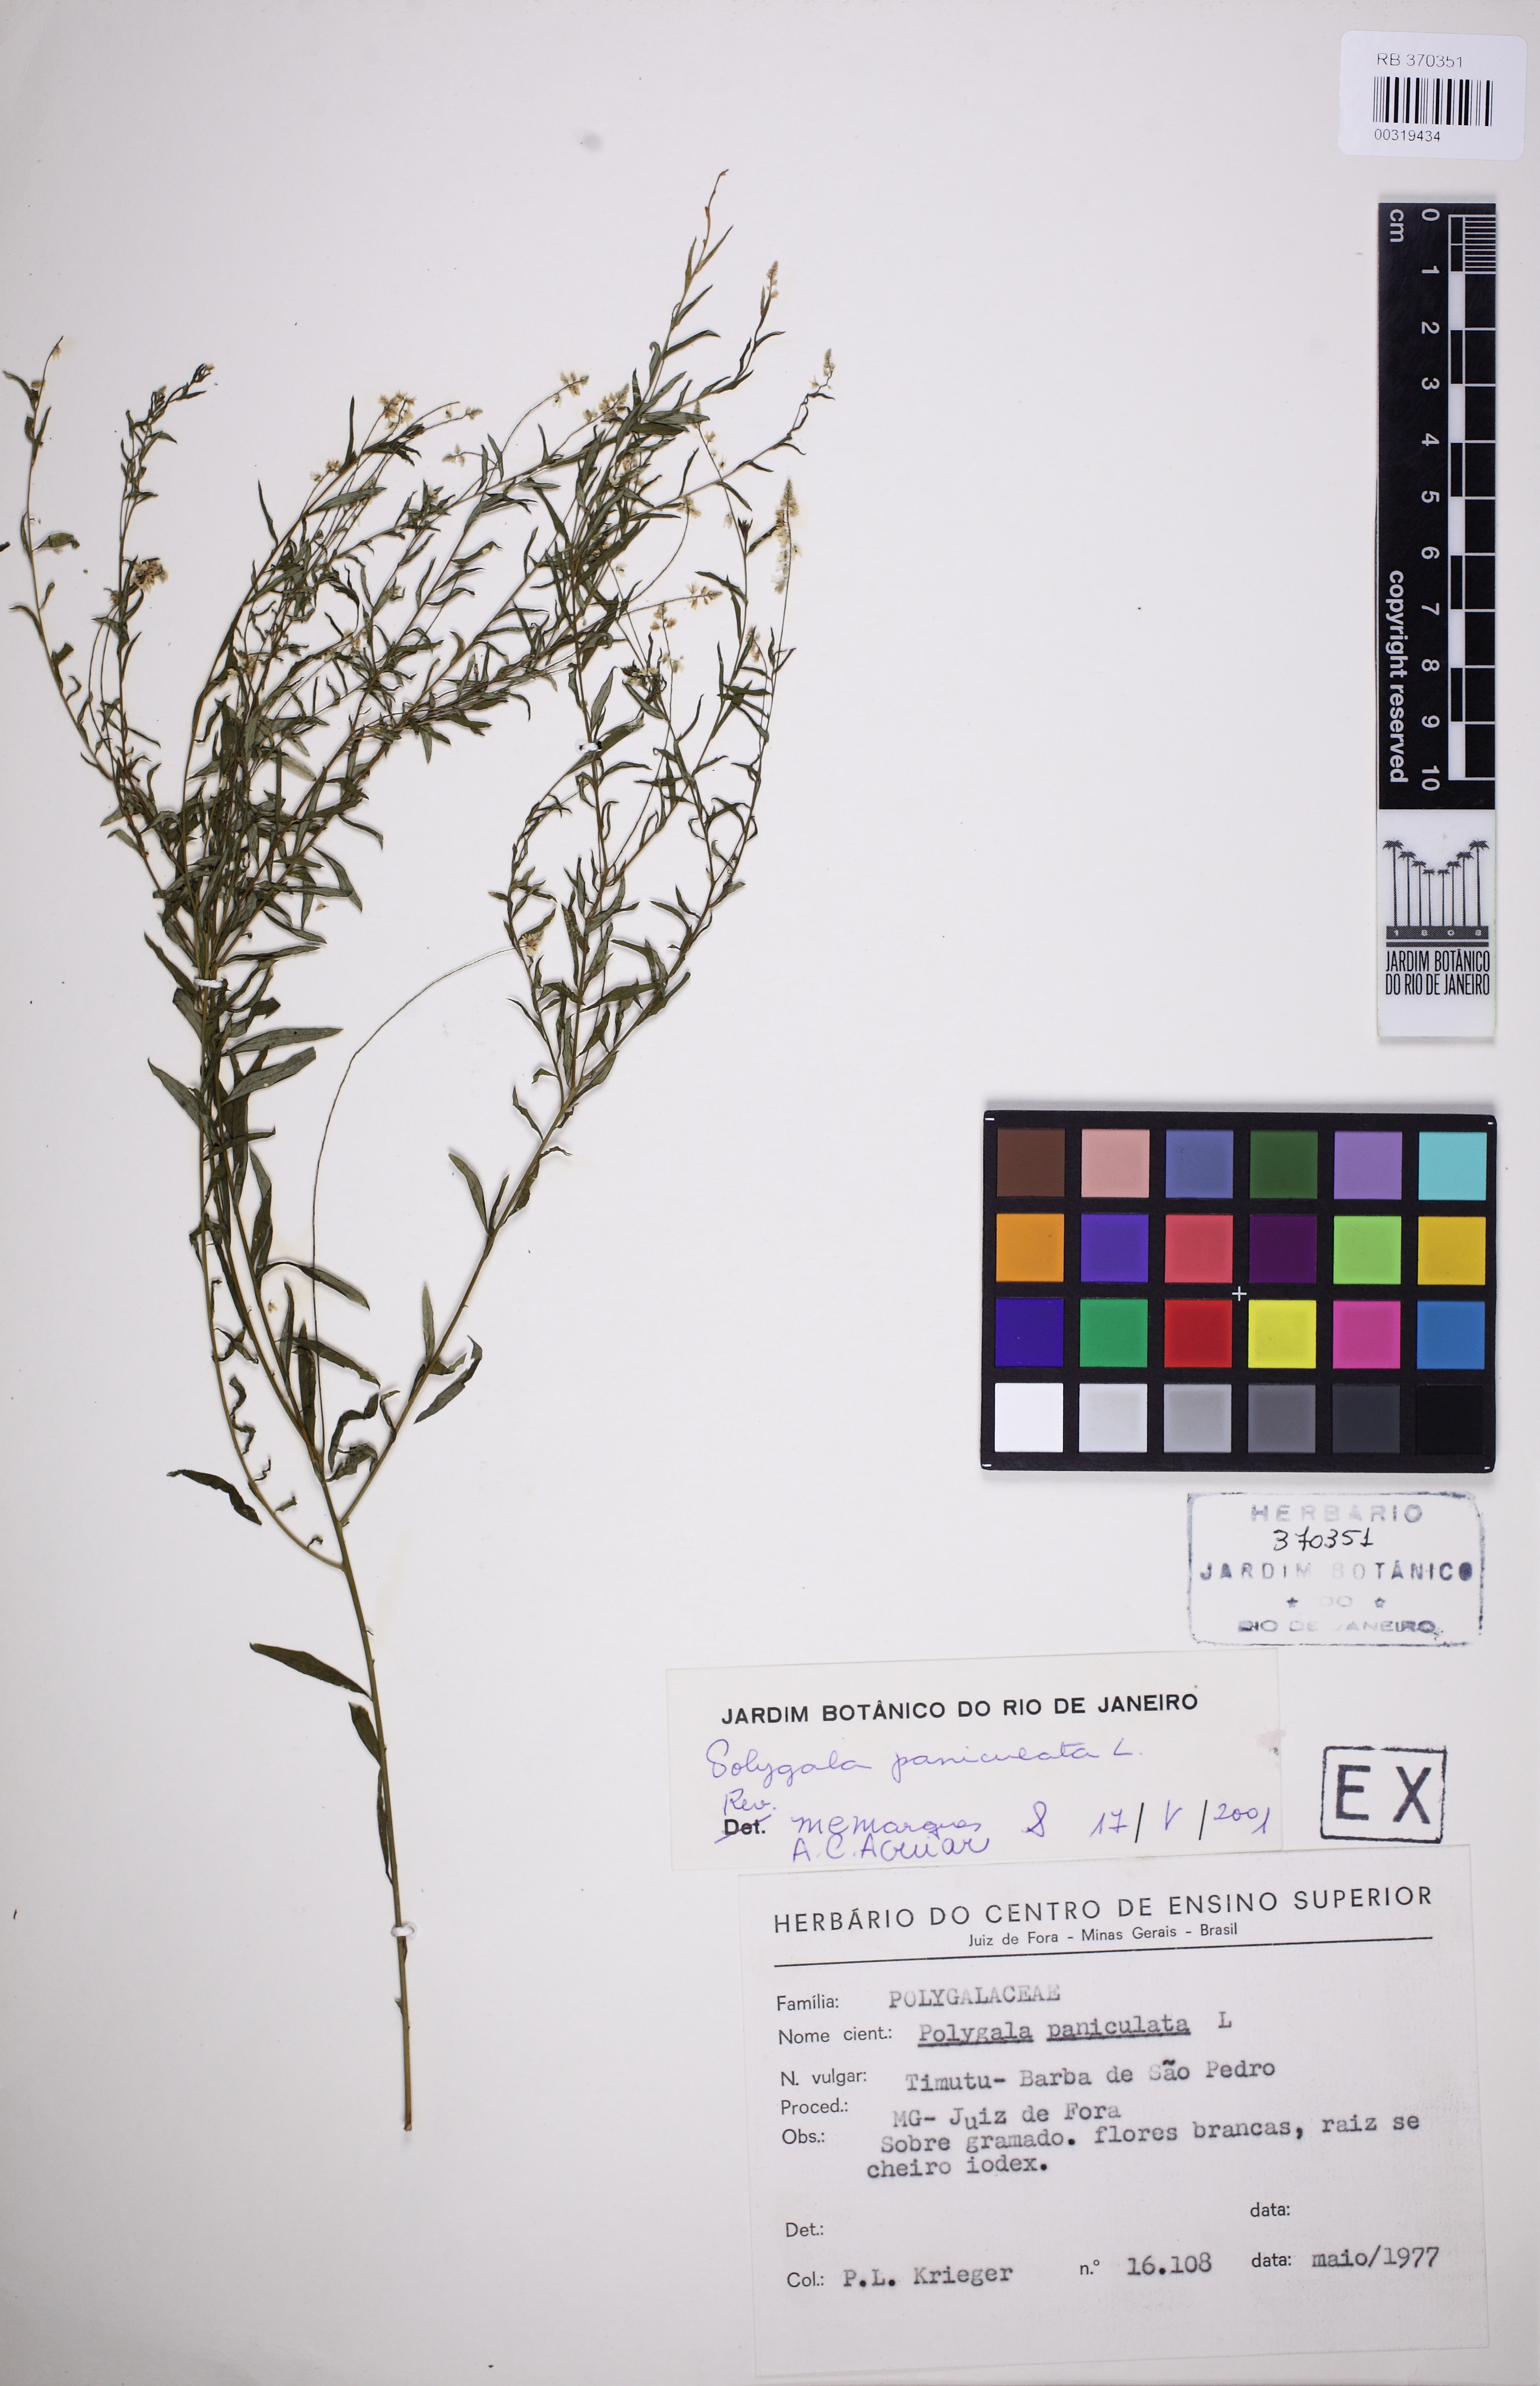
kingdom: Plantae
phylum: Tracheophyta
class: Magnoliopsida
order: Fabales
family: Polygalaceae
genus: Polygala
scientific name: Polygala paniculata
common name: Orosne
